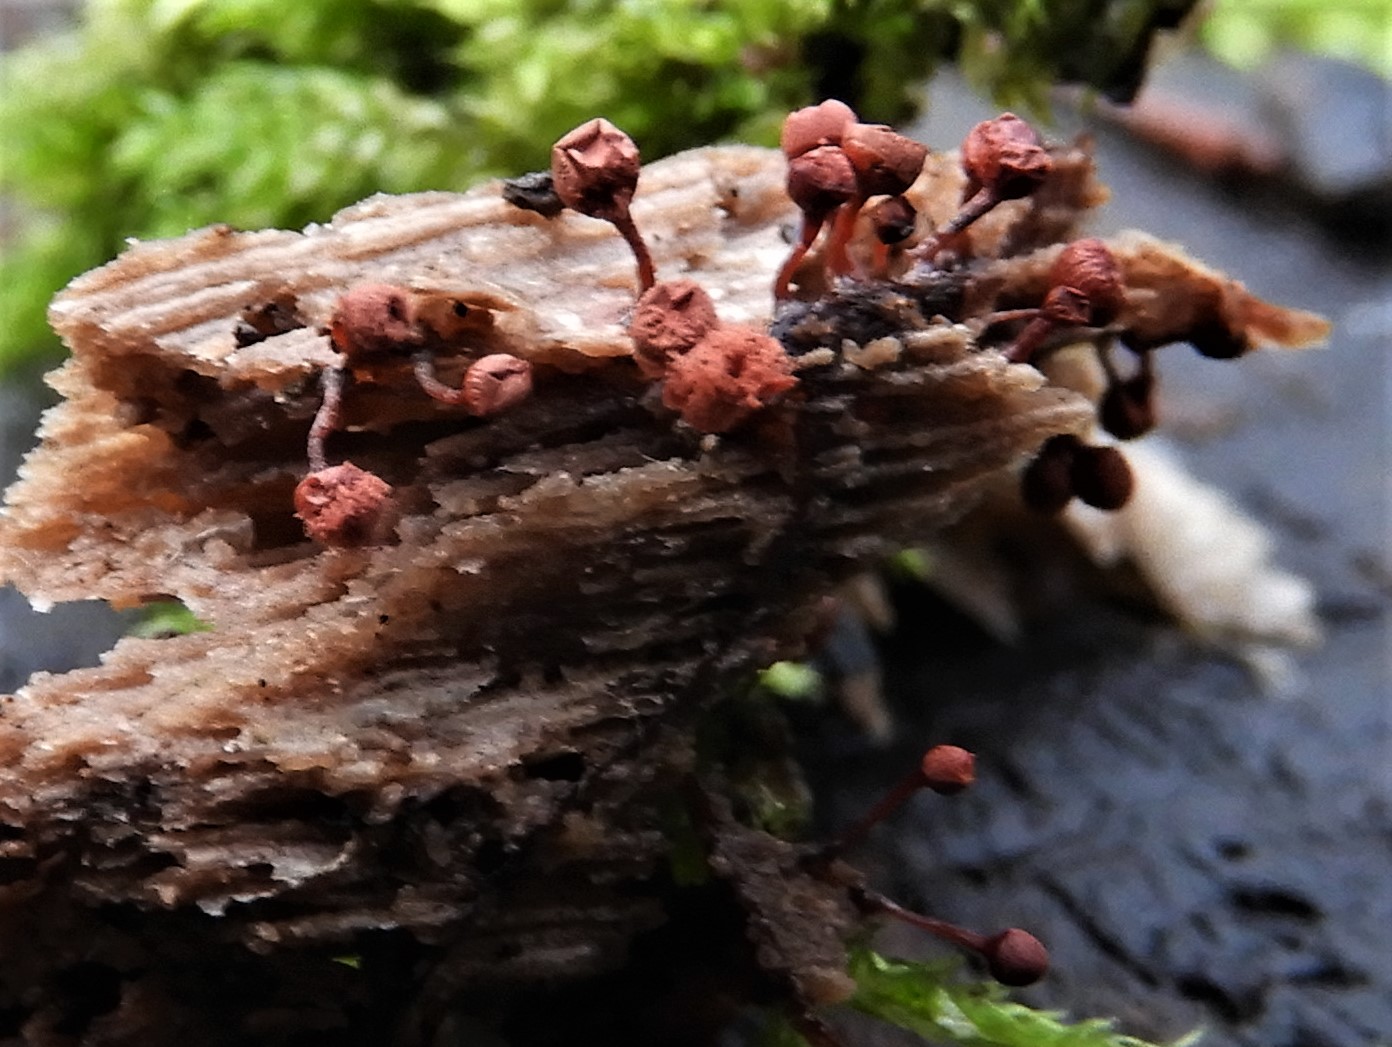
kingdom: Protozoa
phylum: Mycetozoa
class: Myxomycetes
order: Trichiales
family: Arcyriaceae
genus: Arcyria
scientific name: Arcyria denudata
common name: karminrød skålsvøb
